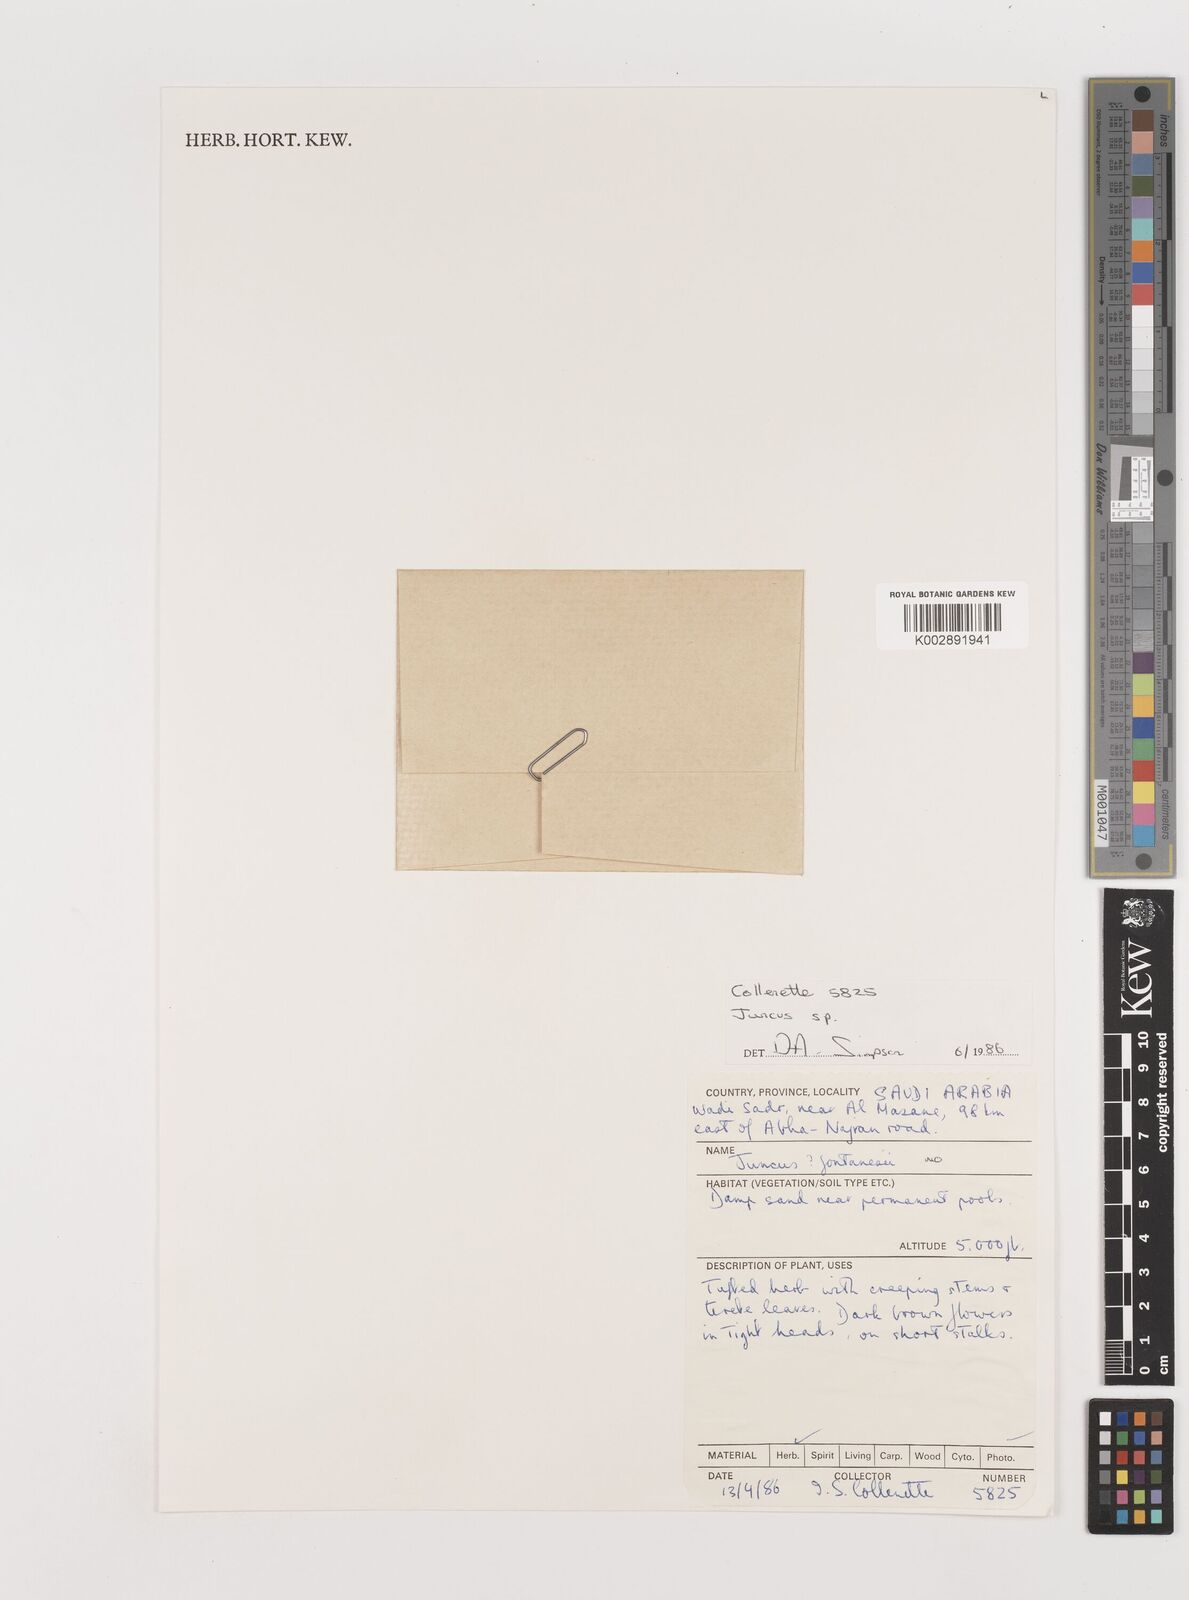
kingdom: Plantae
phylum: Tracheophyta
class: Liliopsida
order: Poales
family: Juncaceae
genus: Juncus
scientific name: Juncus
